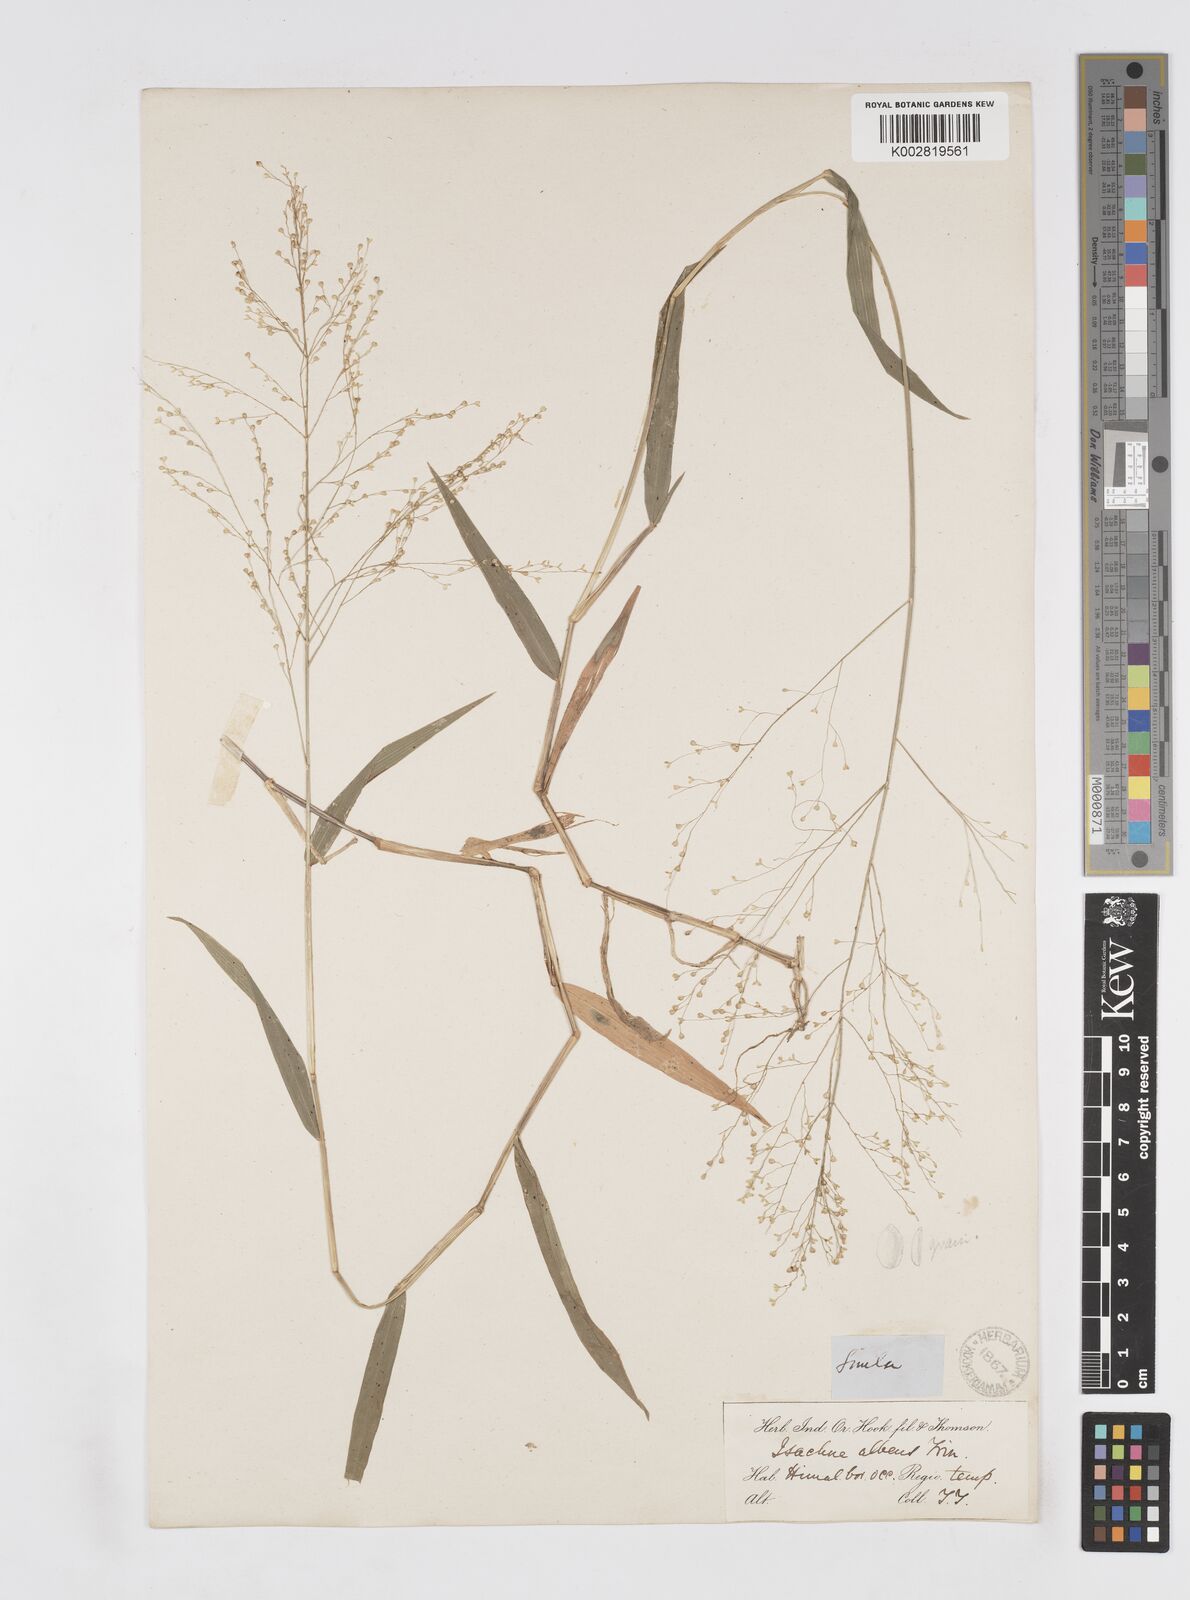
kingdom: Plantae
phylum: Tracheophyta
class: Liliopsida
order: Poales
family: Poaceae
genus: Isachne
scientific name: Isachne albens
